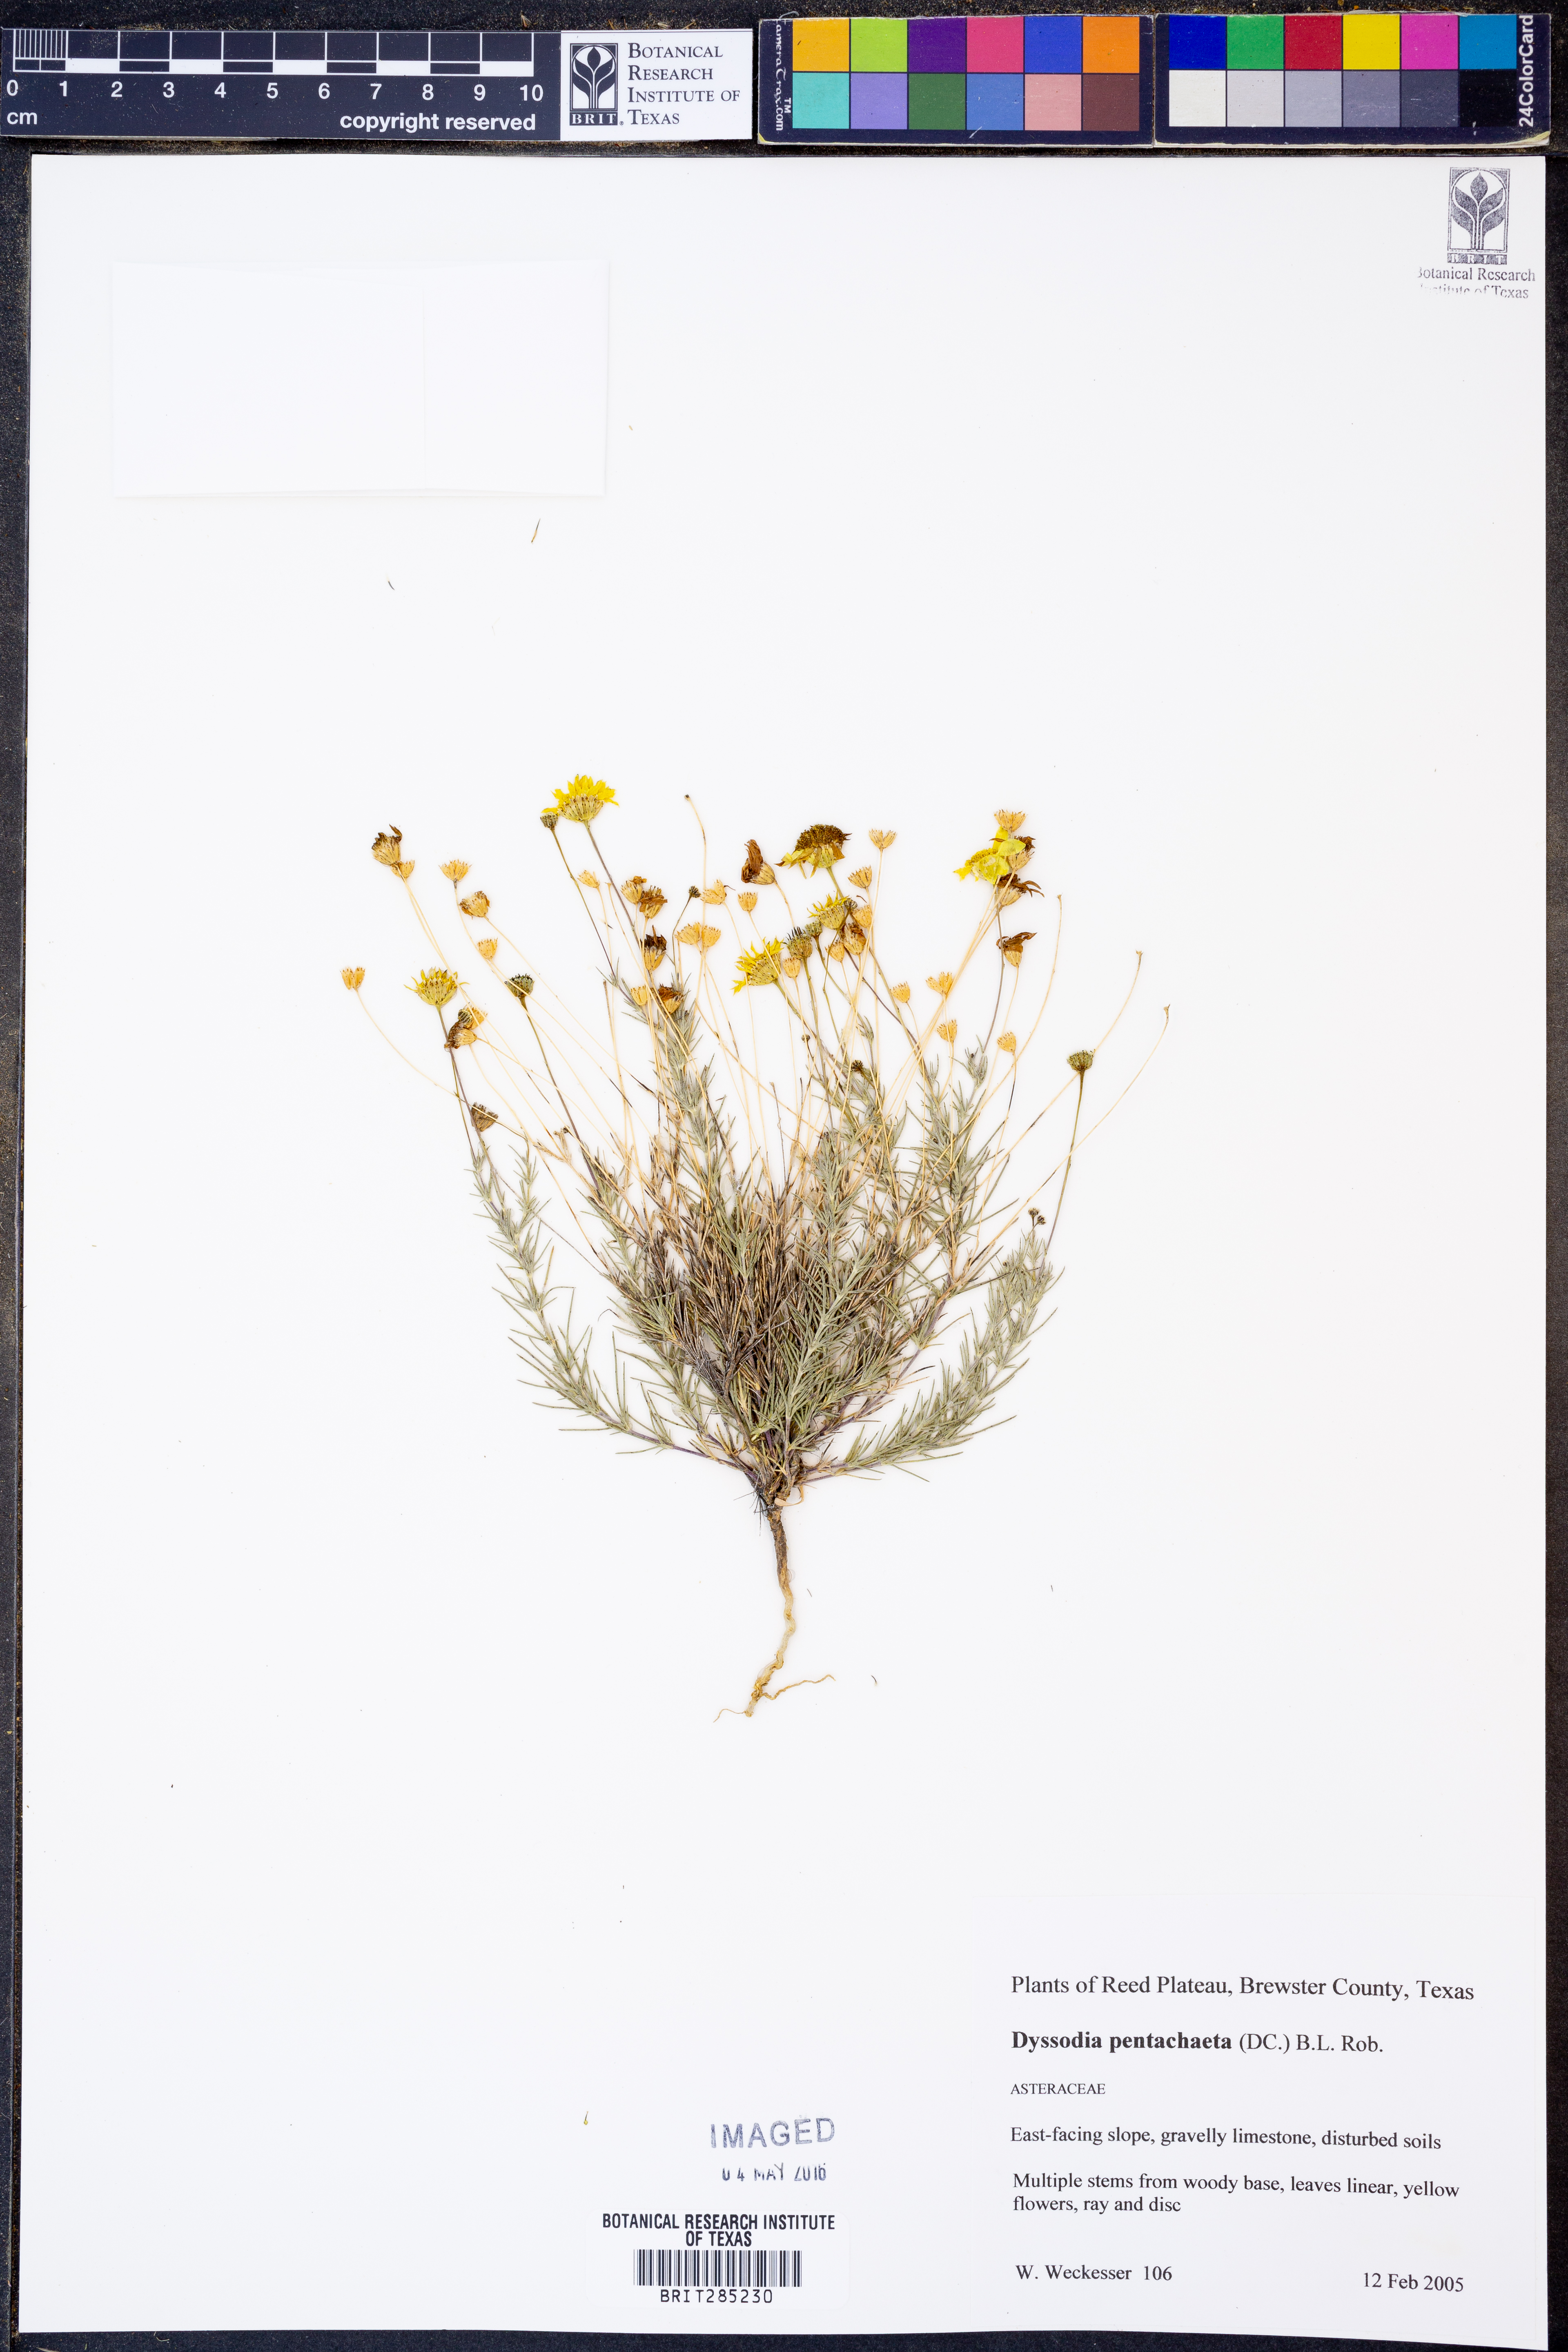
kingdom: Plantae
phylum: Tracheophyta
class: Magnoliopsida
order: Asterales
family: Asteraceae
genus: Thymophylla
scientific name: Thymophylla pentachaeta
